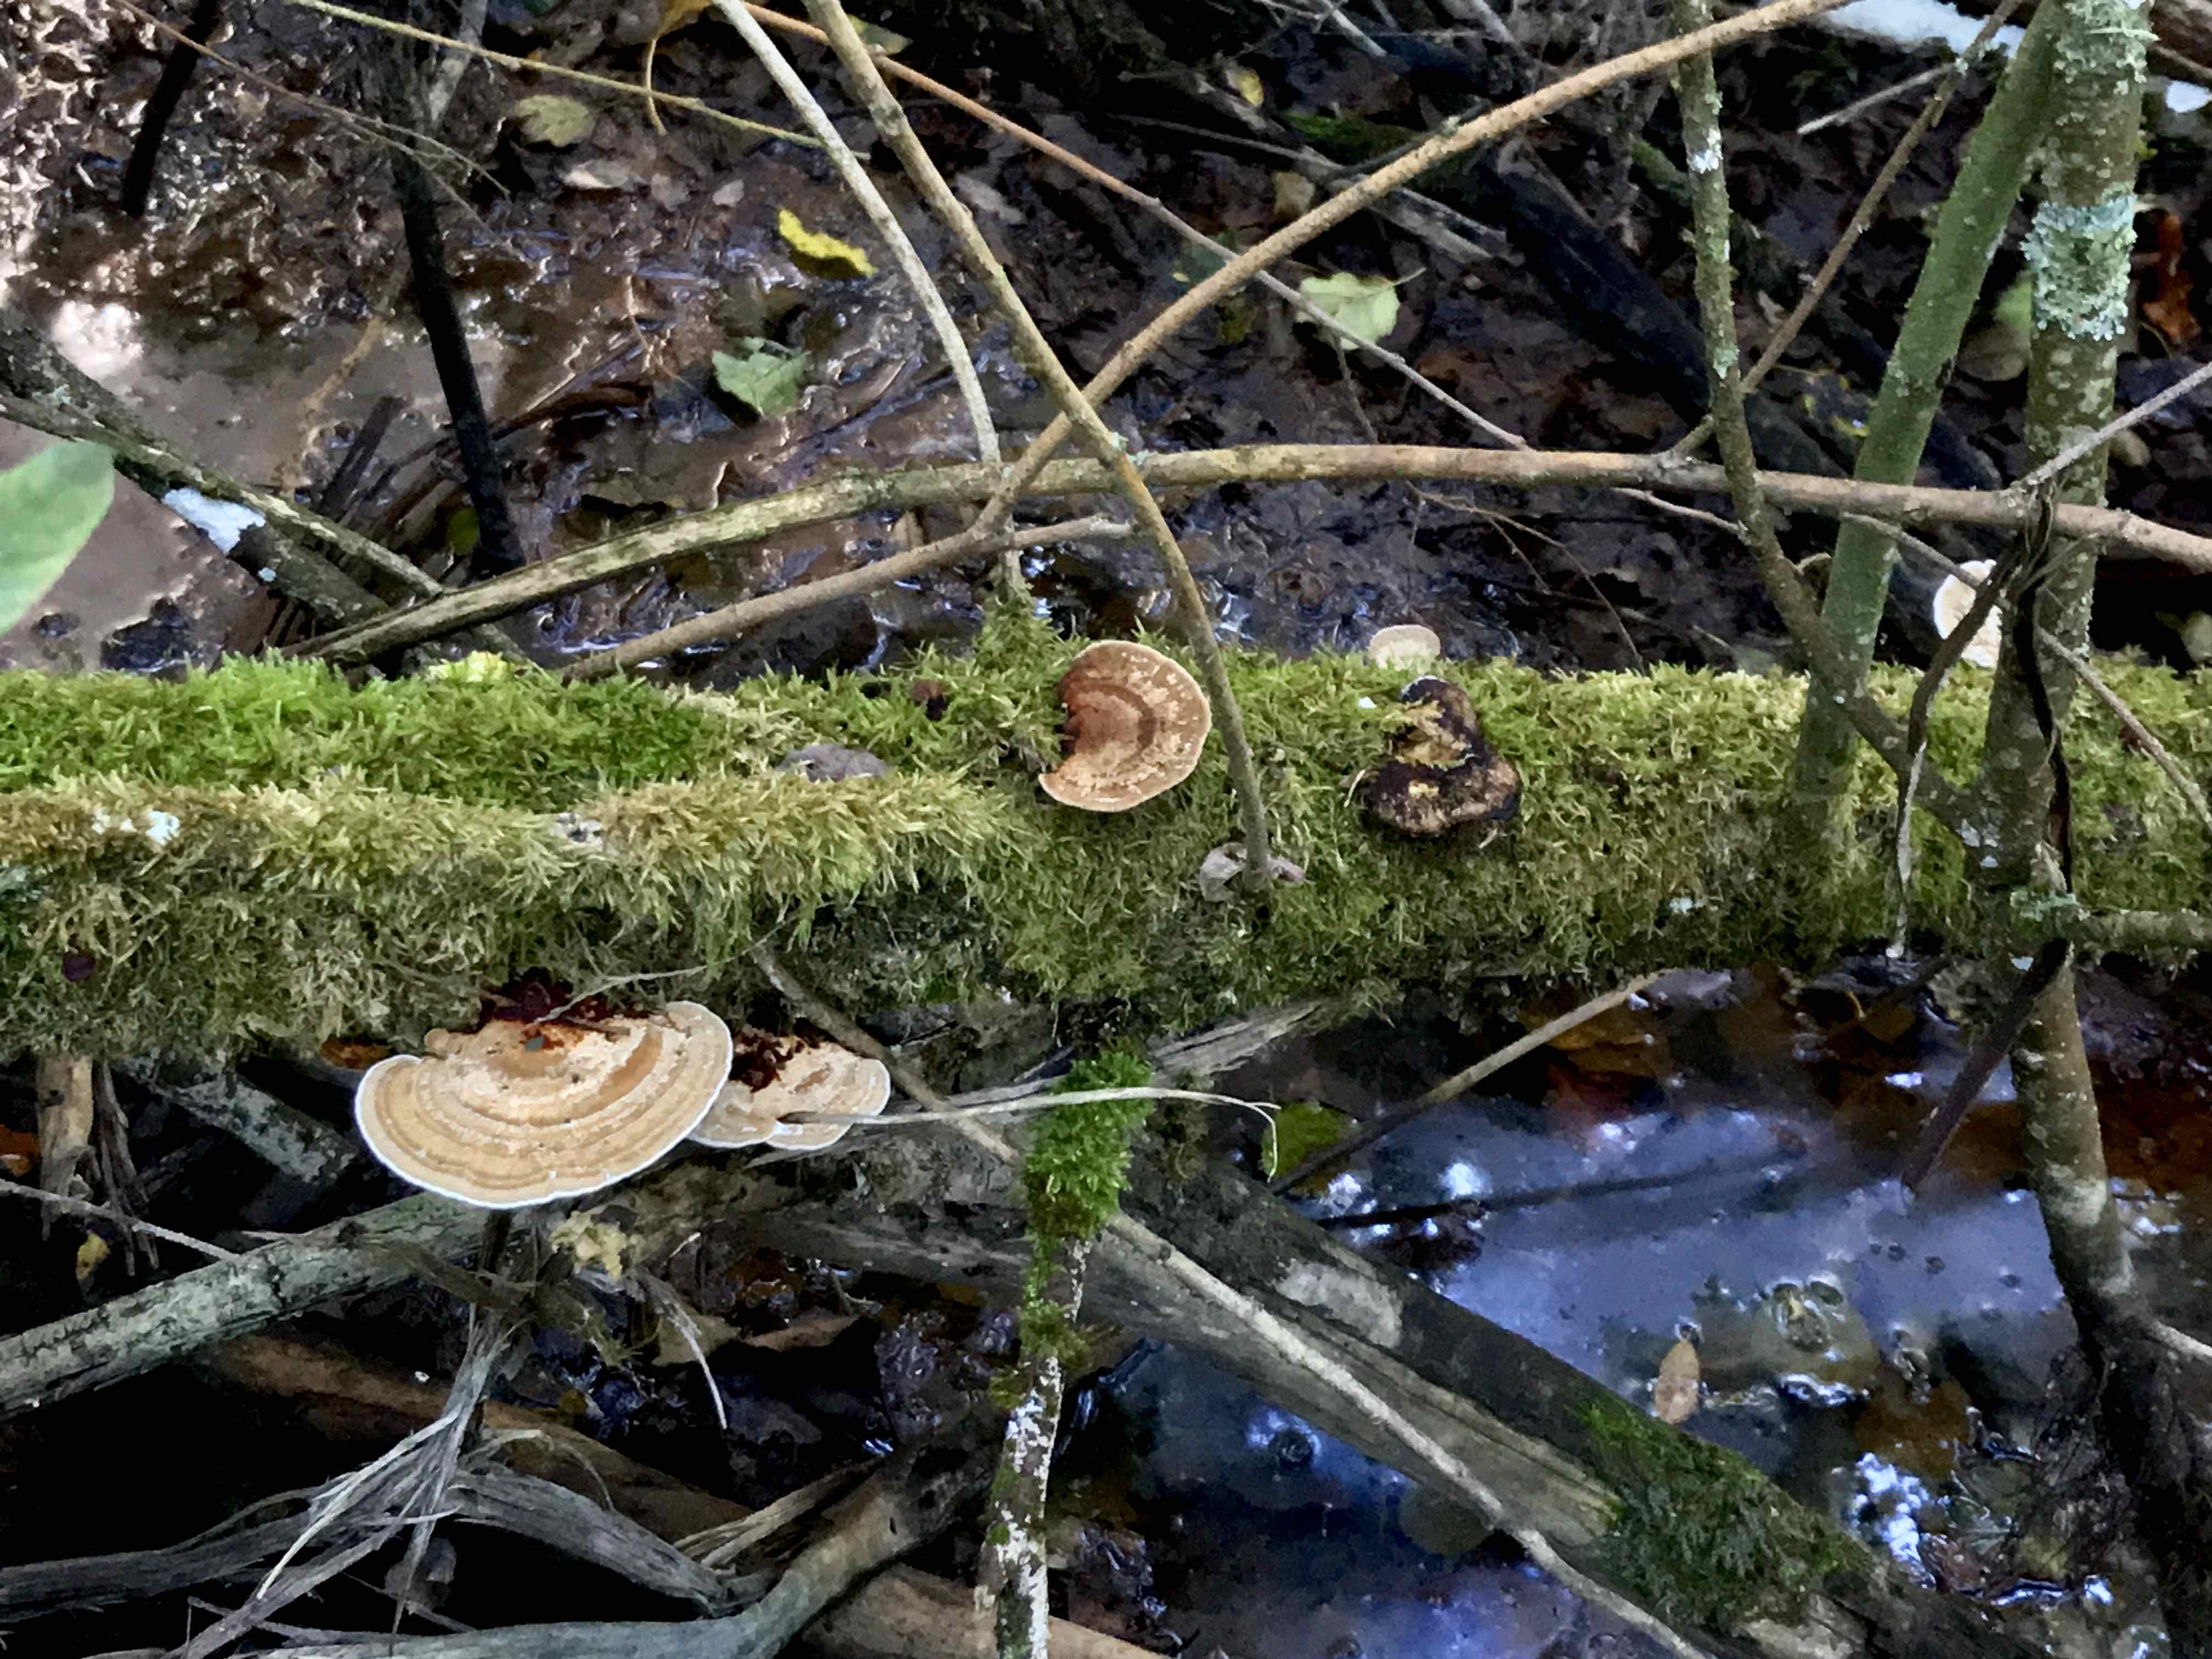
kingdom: Fungi
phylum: Basidiomycota
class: Agaricomycetes
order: Polyporales
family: Polyporaceae
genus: Daedaleopsis
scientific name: Daedaleopsis confragosa
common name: rødmende læderporesvamp
